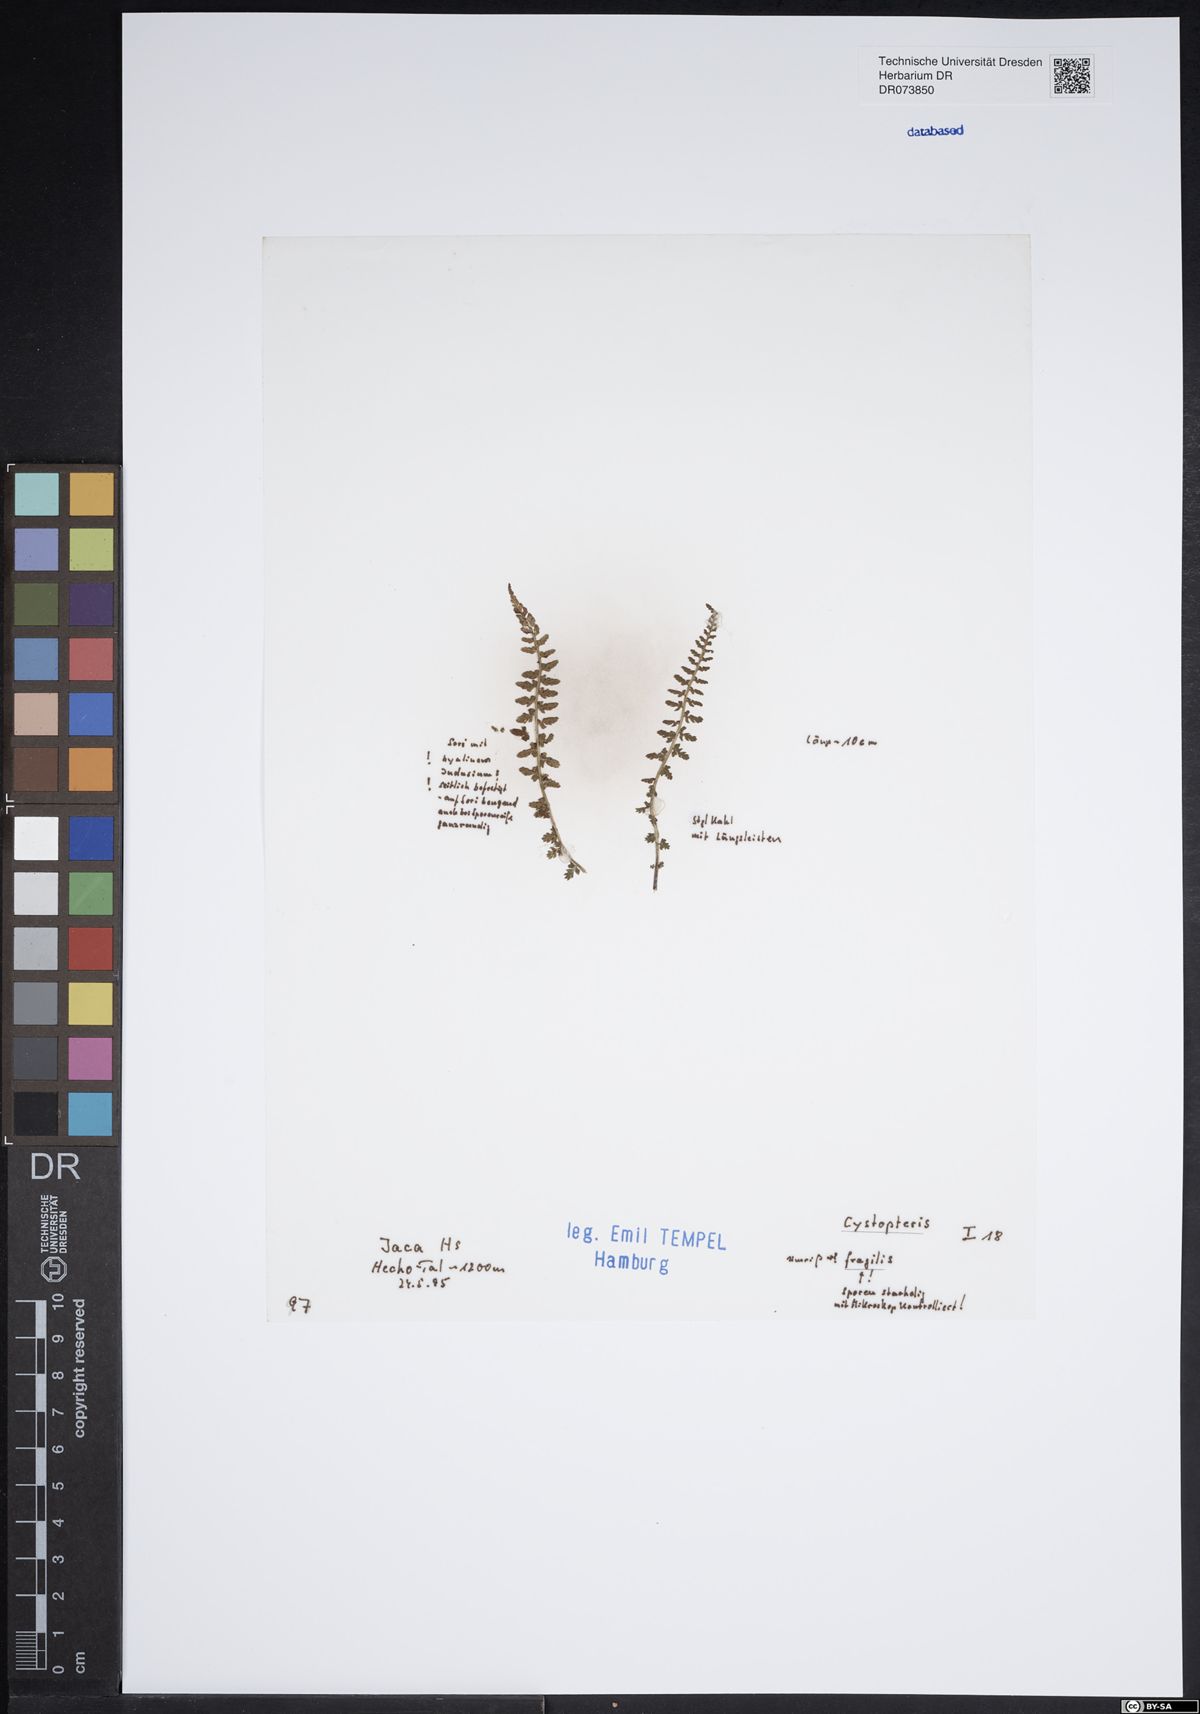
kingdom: Plantae
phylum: Tracheophyta
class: Polypodiopsida
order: Polypodiales
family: Cystopteridaceae
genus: Cystopteris
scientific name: Cystopteris fragilis
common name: Brittle bladder fern
